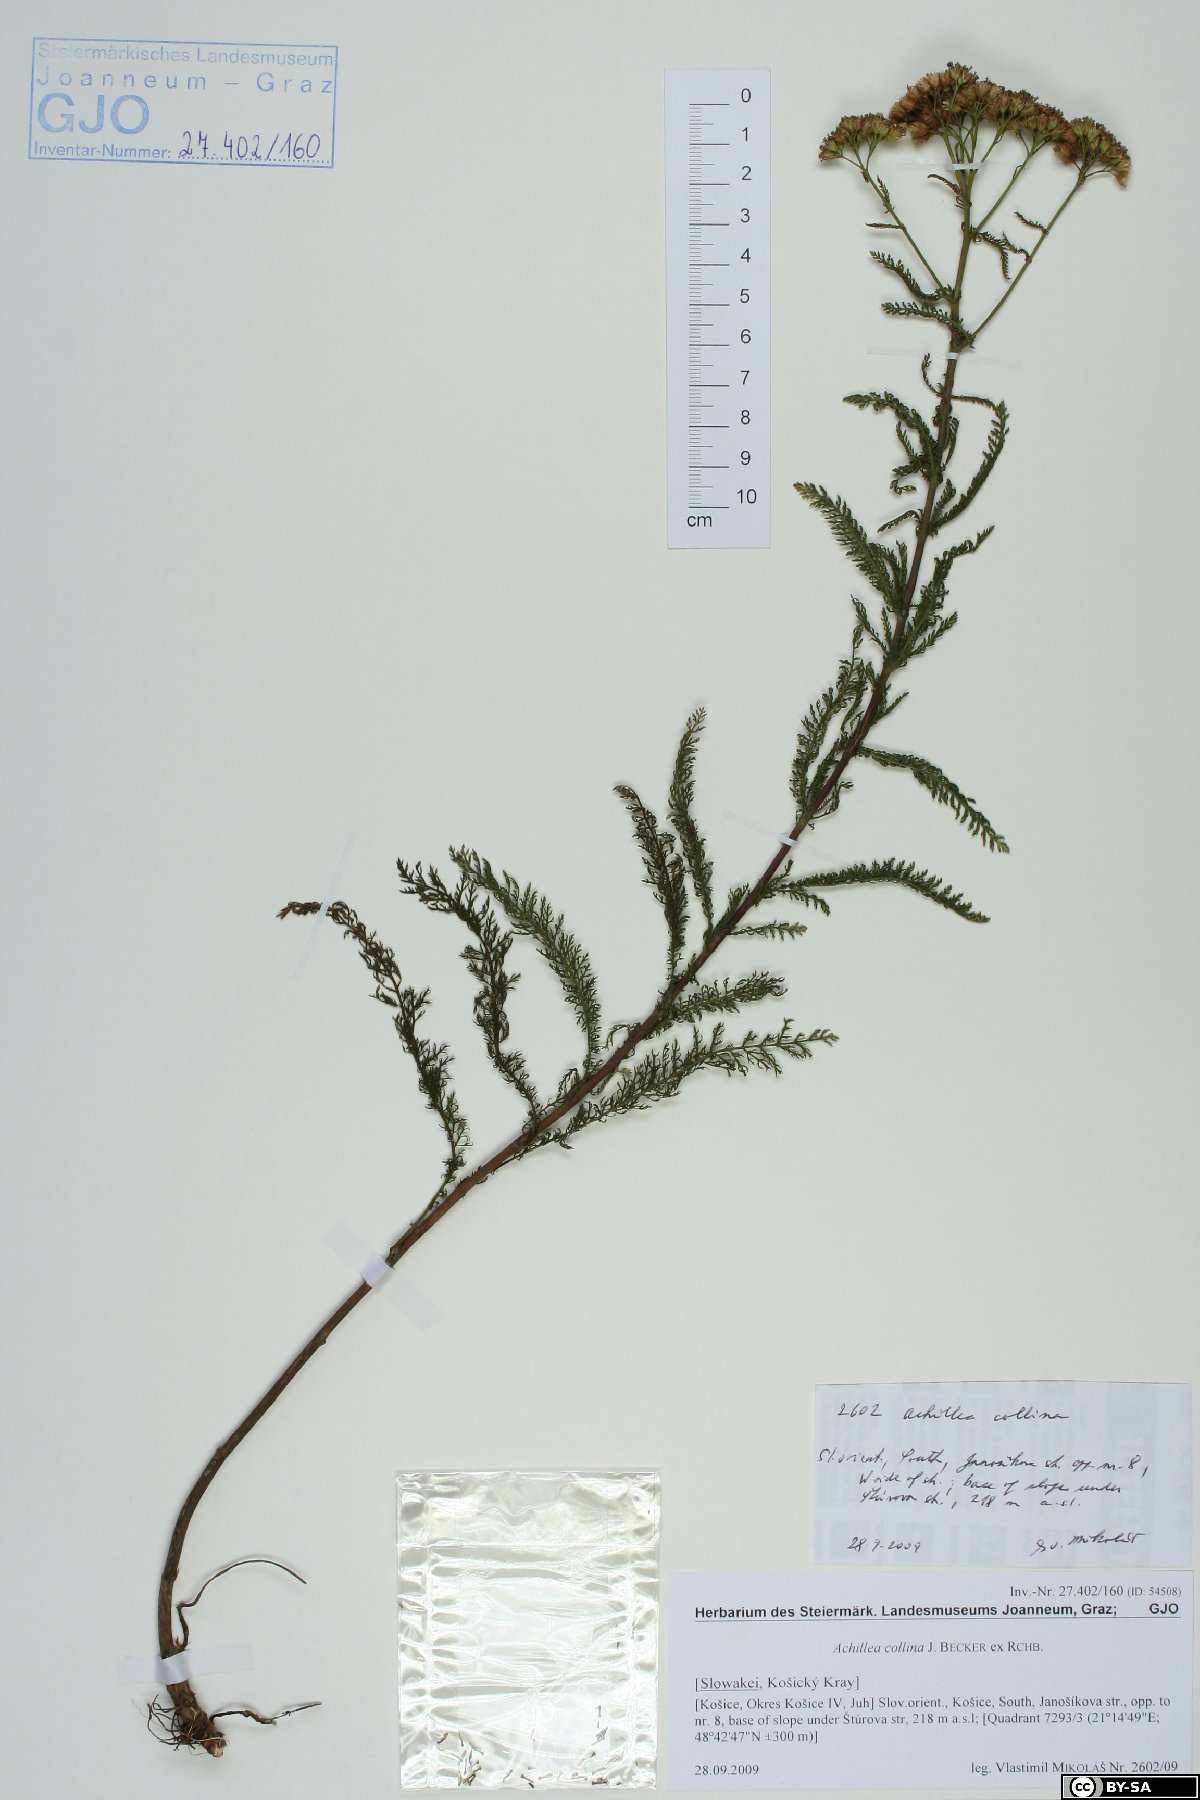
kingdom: Plantae
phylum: Tracheophyta
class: Magnoliopsida
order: Asterales
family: Asteraceae
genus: Achillea
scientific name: Achillea collina
